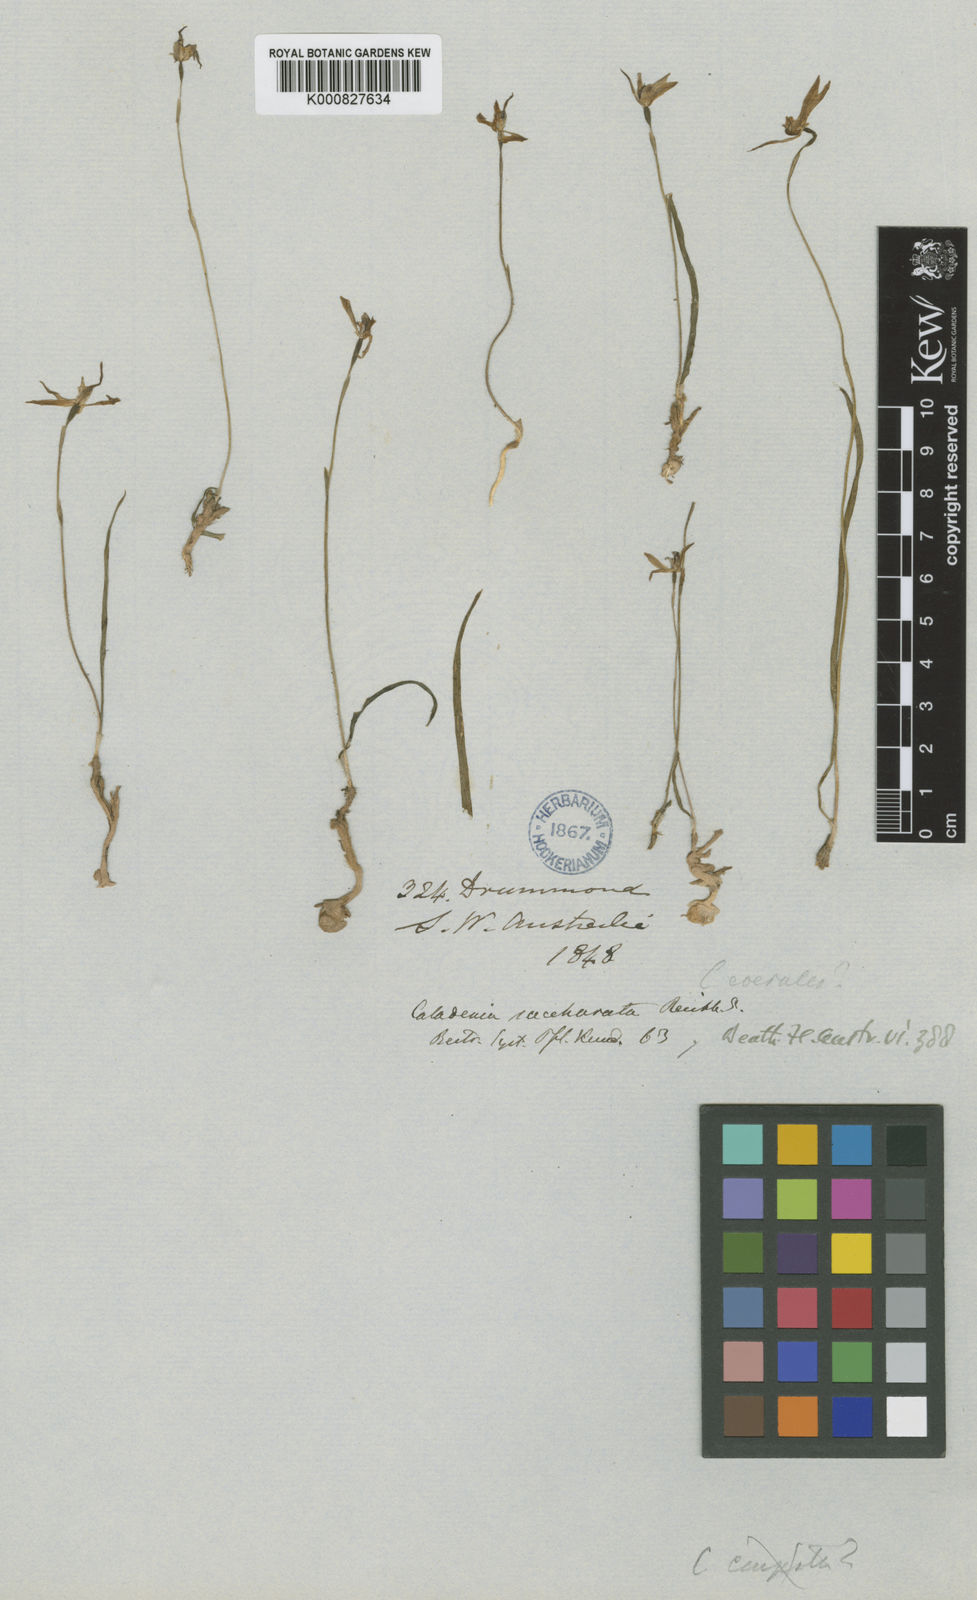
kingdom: Plantae
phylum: Tracheophyta
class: Liliopsida
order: Asparagales
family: Orchidaceae
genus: Caladenia
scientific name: Caladenia dimorpha
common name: Spicy caps
